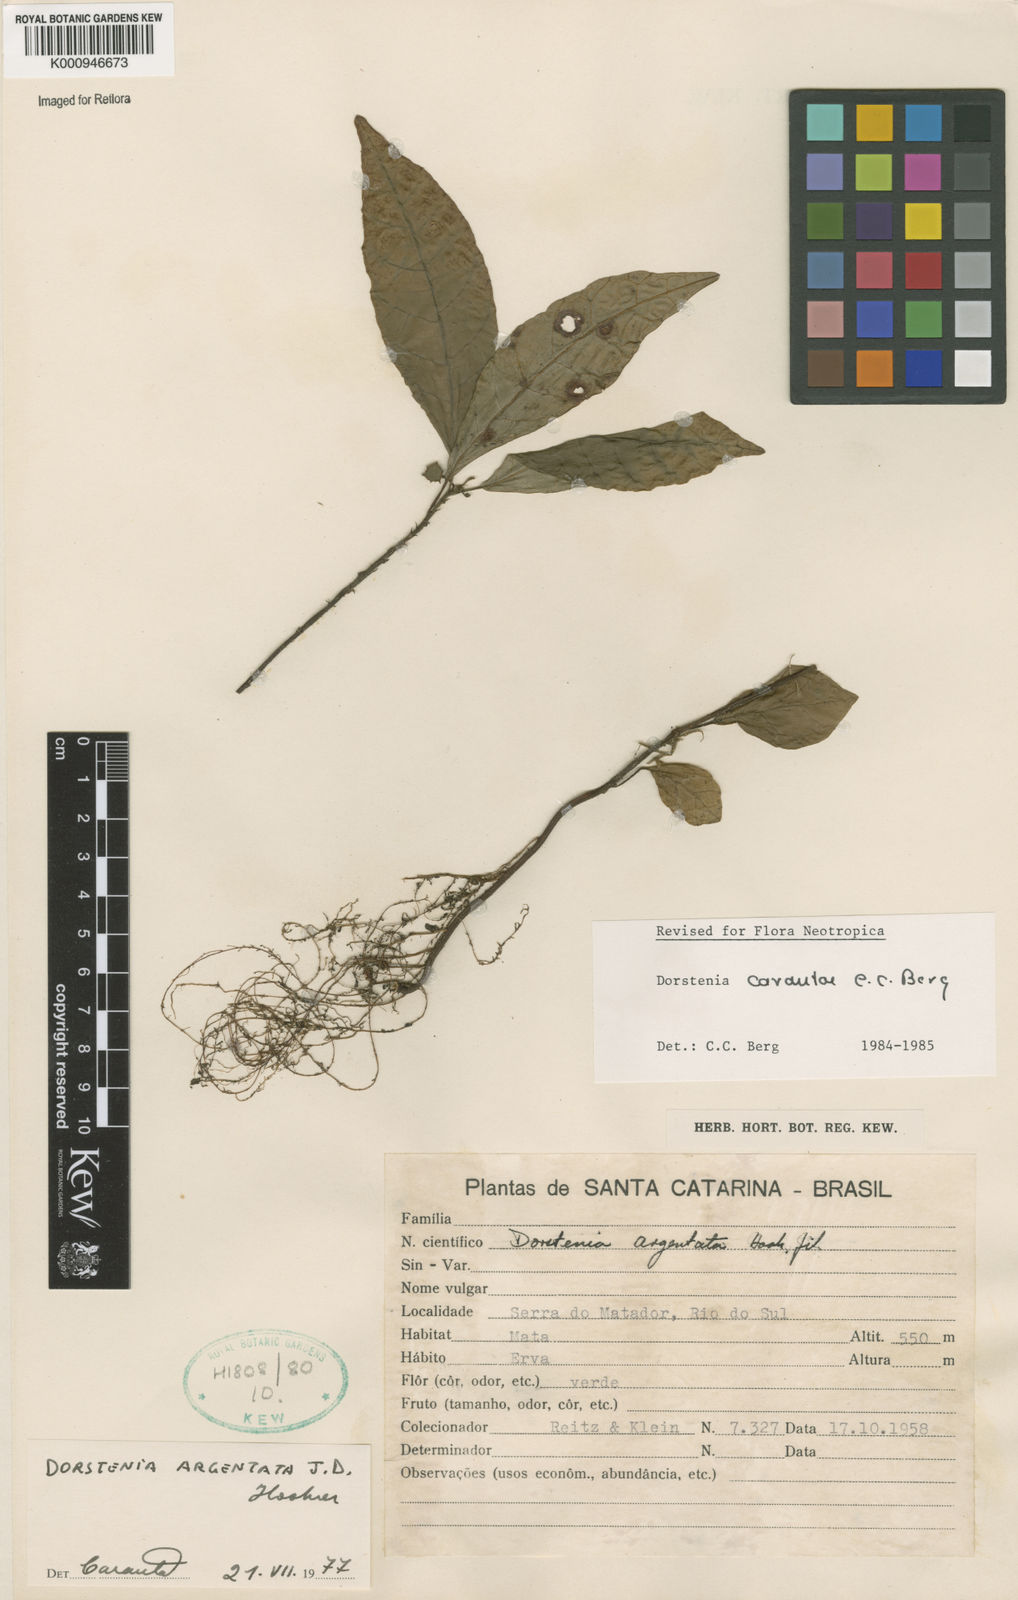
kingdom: Plantae
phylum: Tracheophyta
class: Magnoliopsida
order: Rosales
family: Moraceae
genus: Dorstenia
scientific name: Dorstenia carautae
